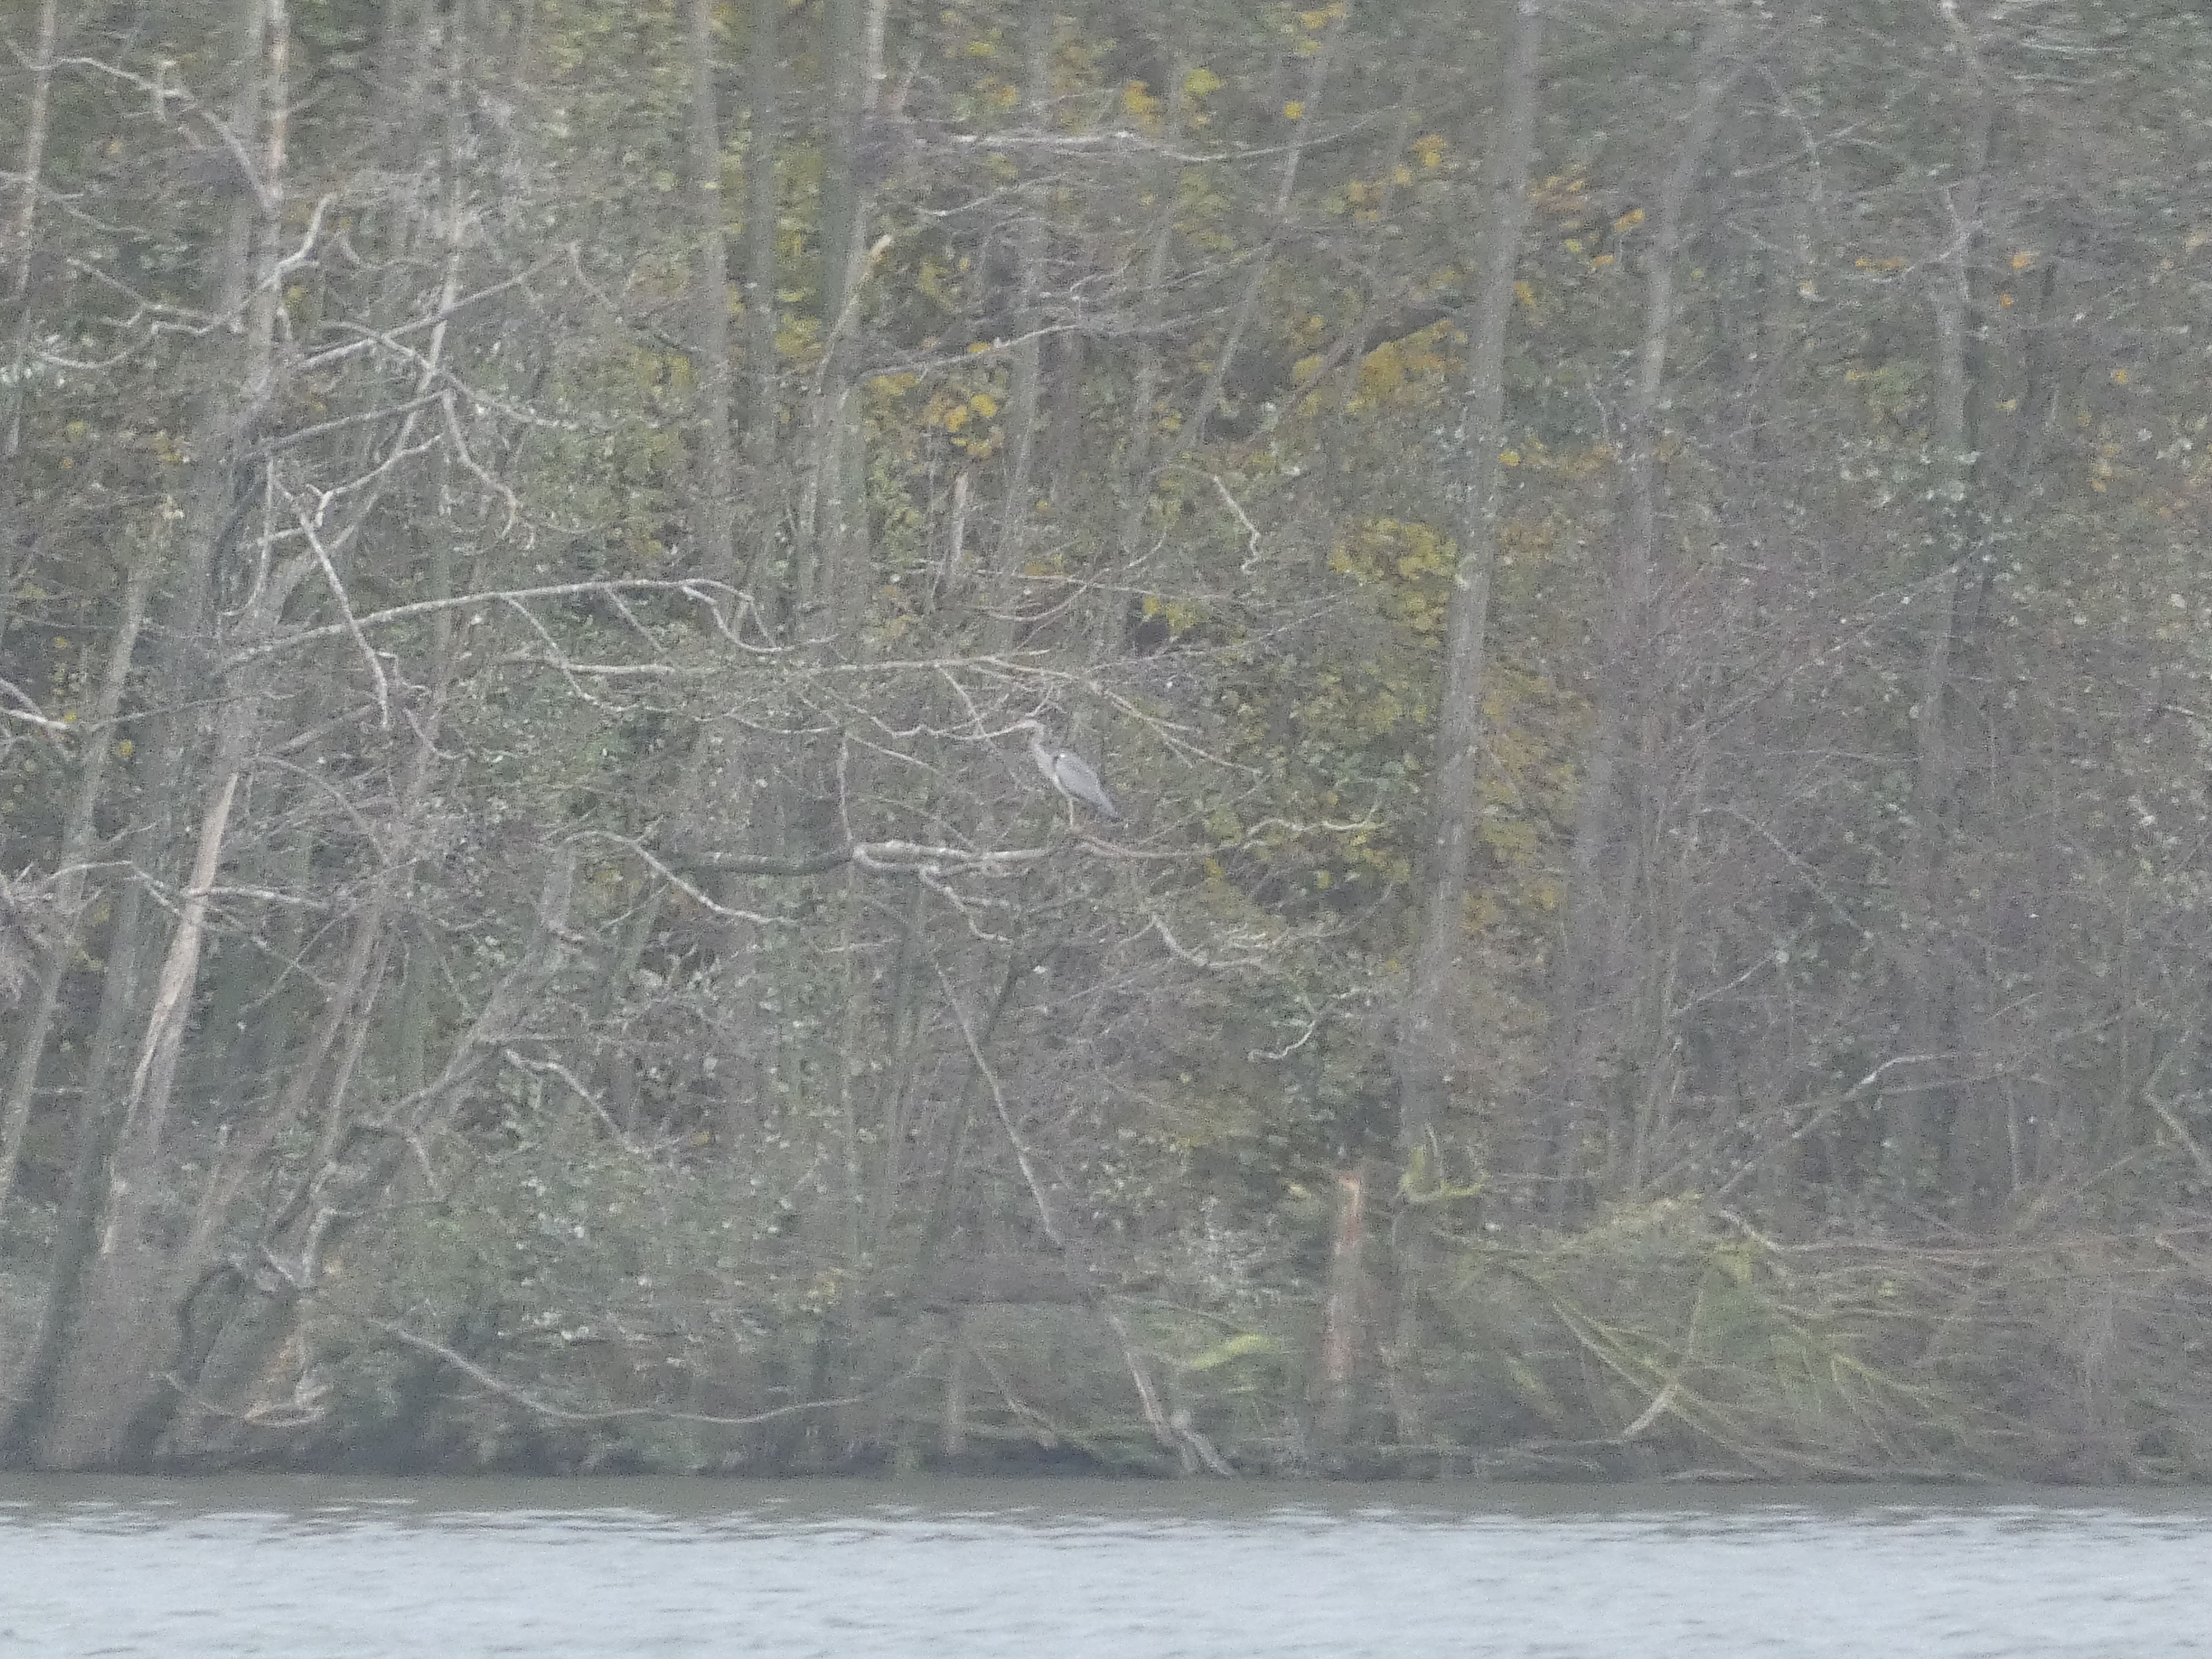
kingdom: Animalia
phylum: Chordata
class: Aves
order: Pelecaniformes
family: Ardeidae
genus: Ardea
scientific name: Ardea cinerea
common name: Fiskehejre
